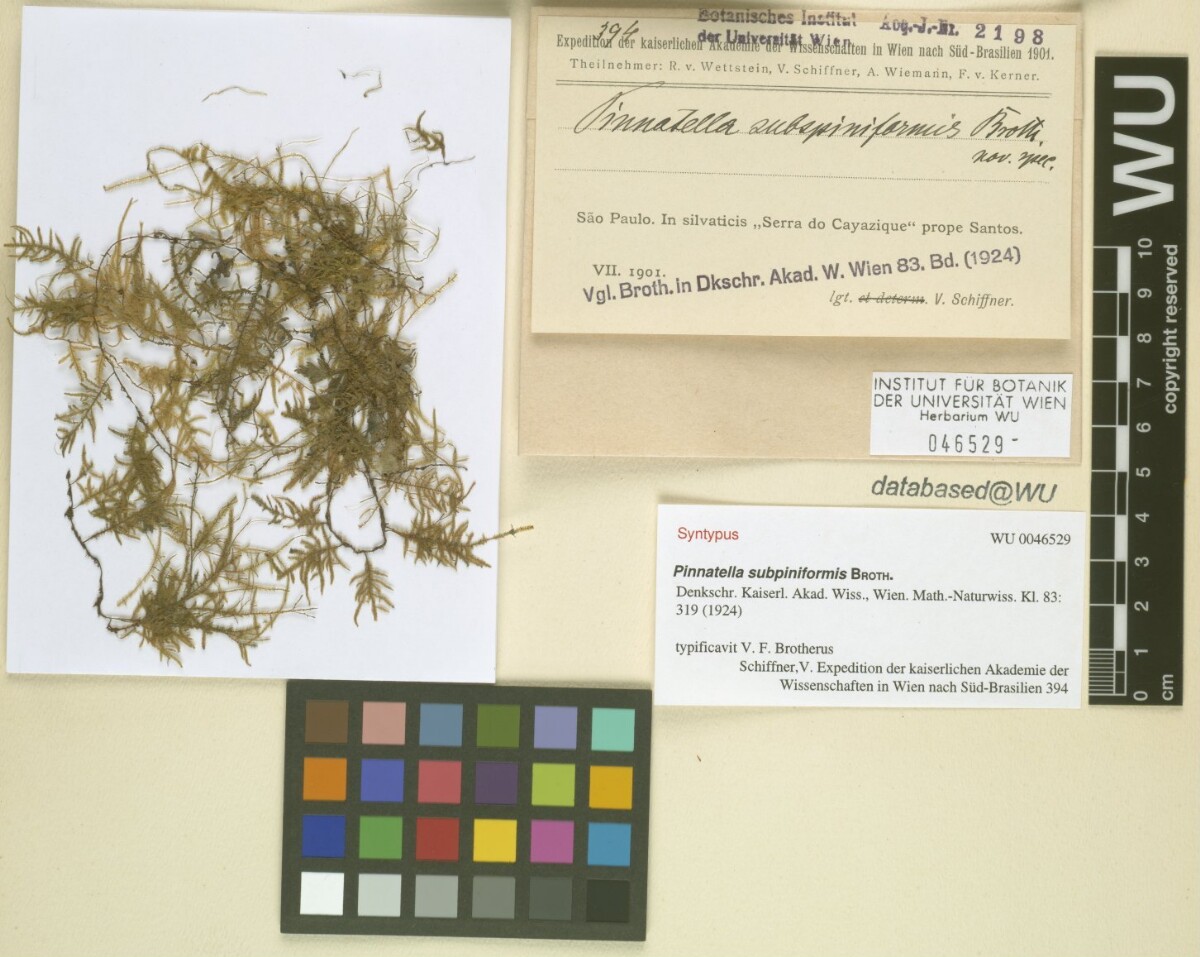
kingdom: Plantae
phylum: Bryophyta
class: Bryopsida
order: Hypnales
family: Orthostichellaceae
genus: Pinnatidendron
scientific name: Pinnatidendron piniforme
